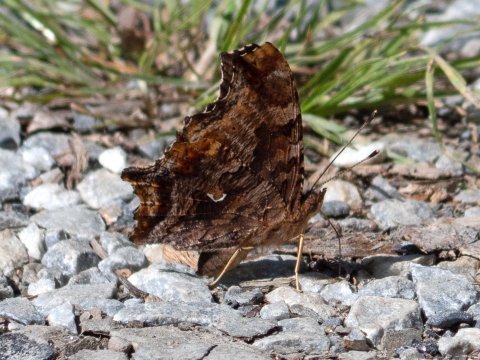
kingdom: Animalia
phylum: Arthropoda
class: Insecta
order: Lepidoptera
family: Nymphalidae
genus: Polygonia
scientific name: Polygonia comma
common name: Eastern Comma
